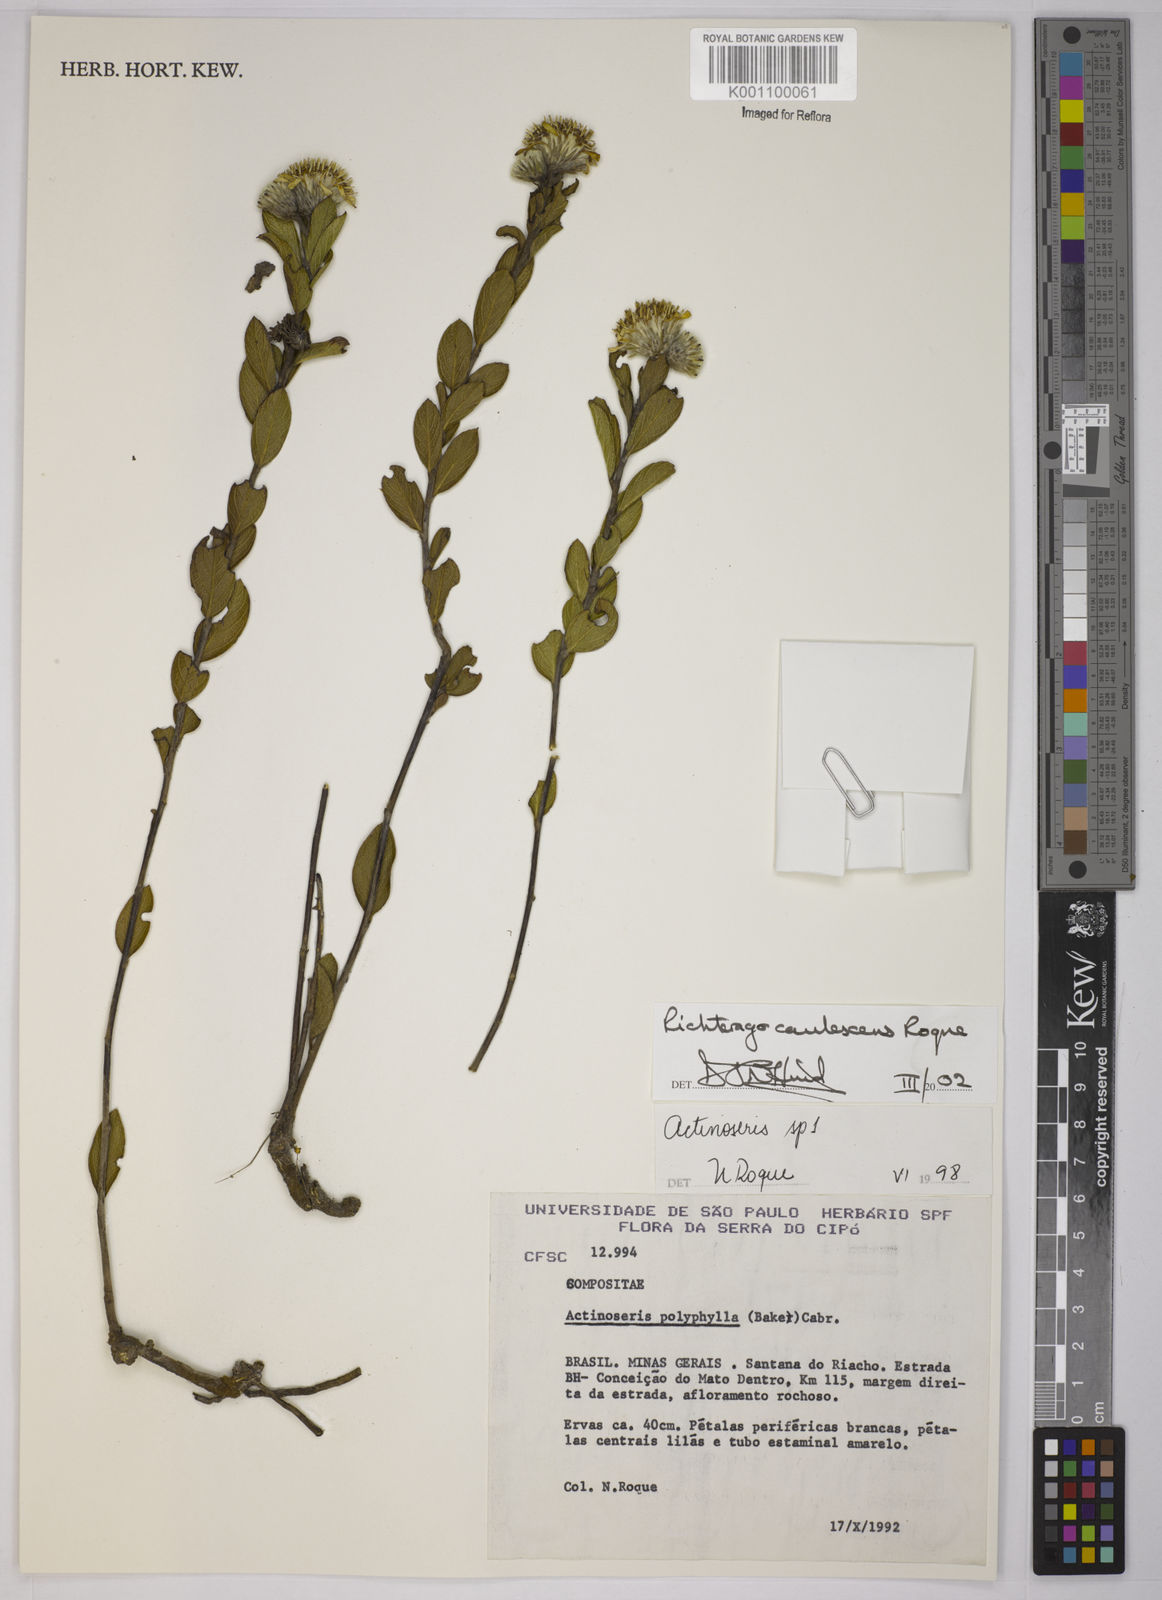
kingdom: Plantae
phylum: Tracheophyta
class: Magnoliopsida
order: Asterales
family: Asteraceae
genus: Richterago
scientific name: Richterago caulescens
